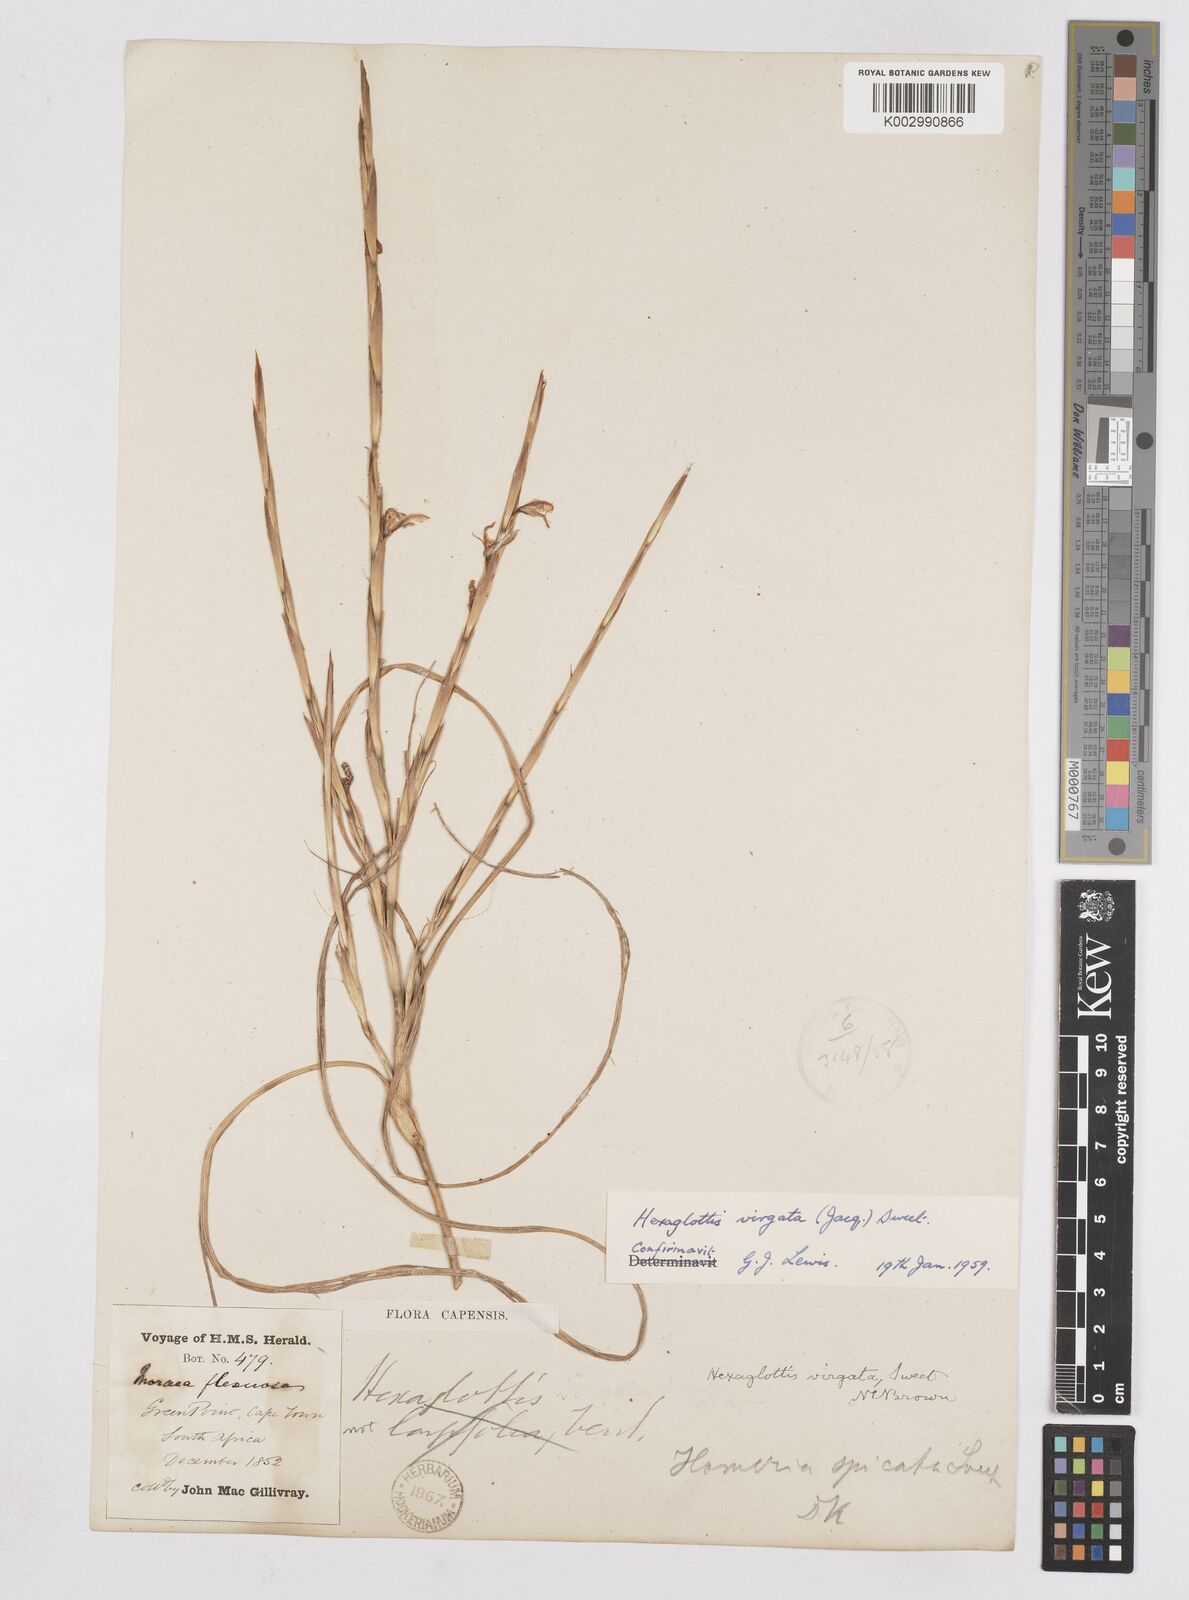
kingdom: Plantae
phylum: Tracheophyta
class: Liliopsida
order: Asparagales
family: Iridaceae
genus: Moraea
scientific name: Moraea virgata
